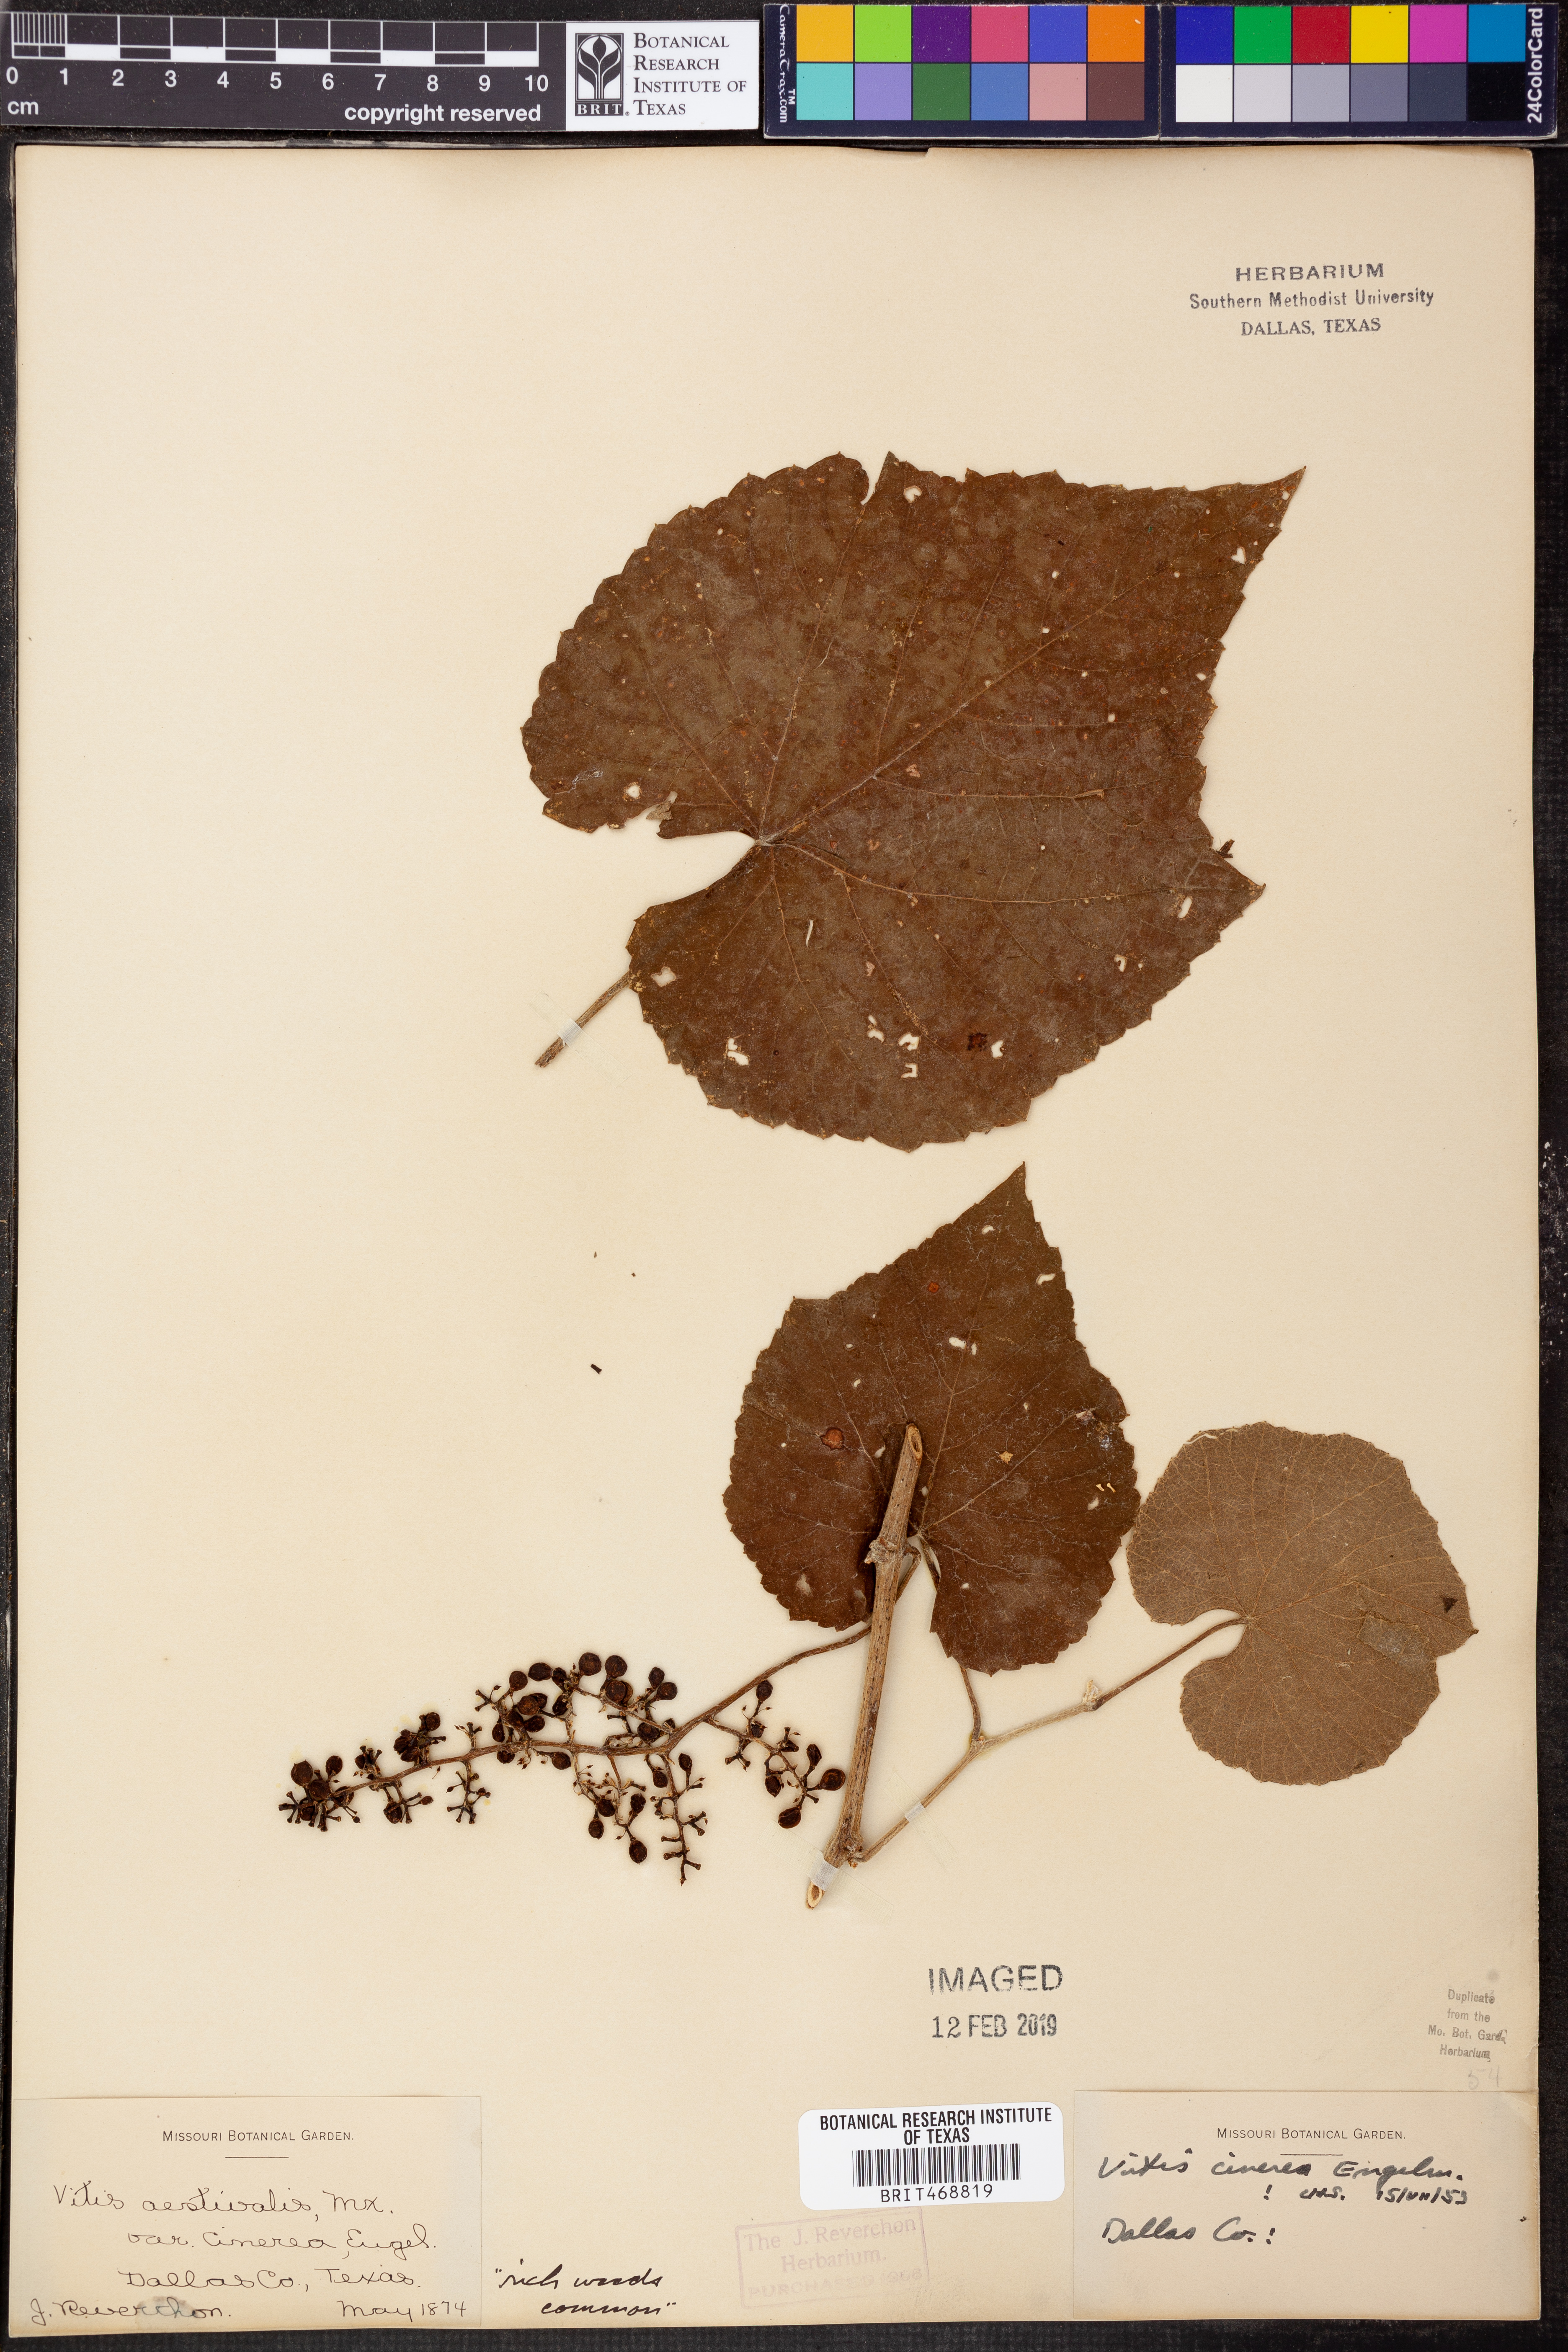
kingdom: Plantae
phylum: Tracheophyta
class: Magnoliopsida
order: Vitales
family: Vitaceae
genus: Vitis
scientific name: Vitis cinerea
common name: Ashy grape
